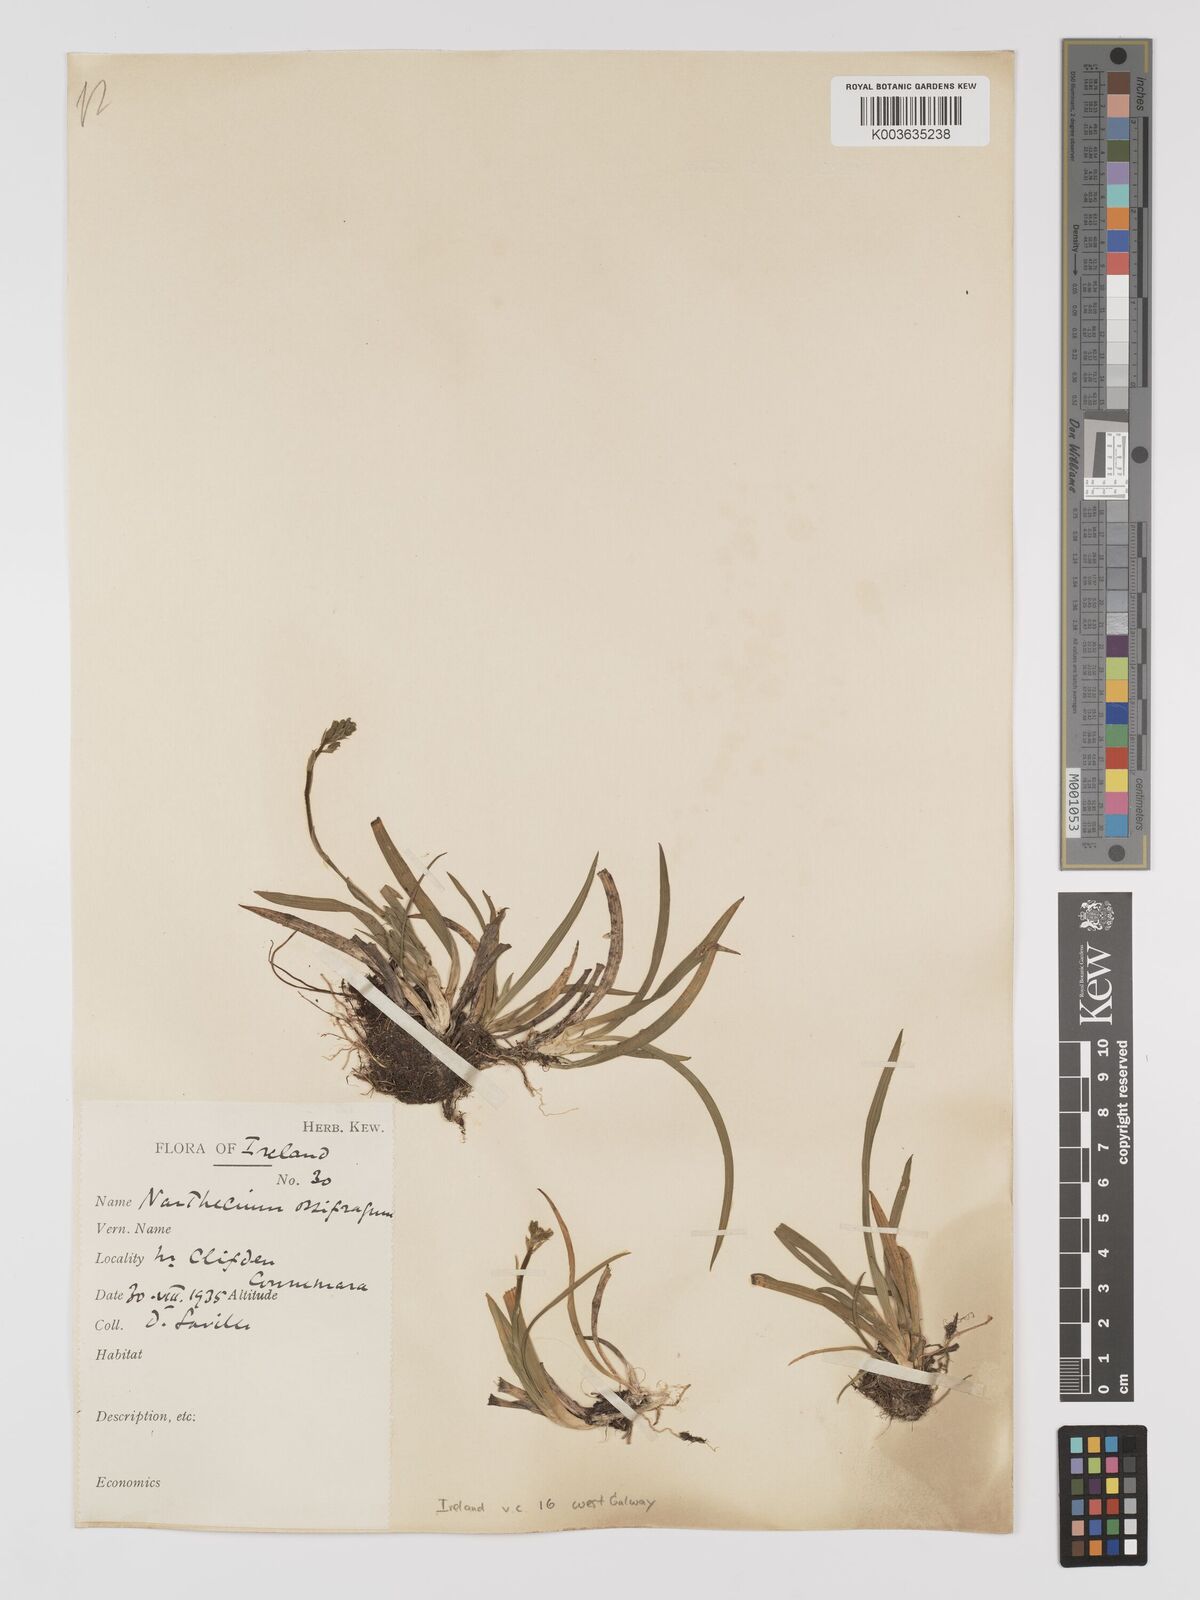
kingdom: Plantae
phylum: Tracheophyta
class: Liliopsida
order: Dioscoreales
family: Nartheciaceae
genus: Narthecium
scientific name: Narthecium ossifragum
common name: Bog asphodel
